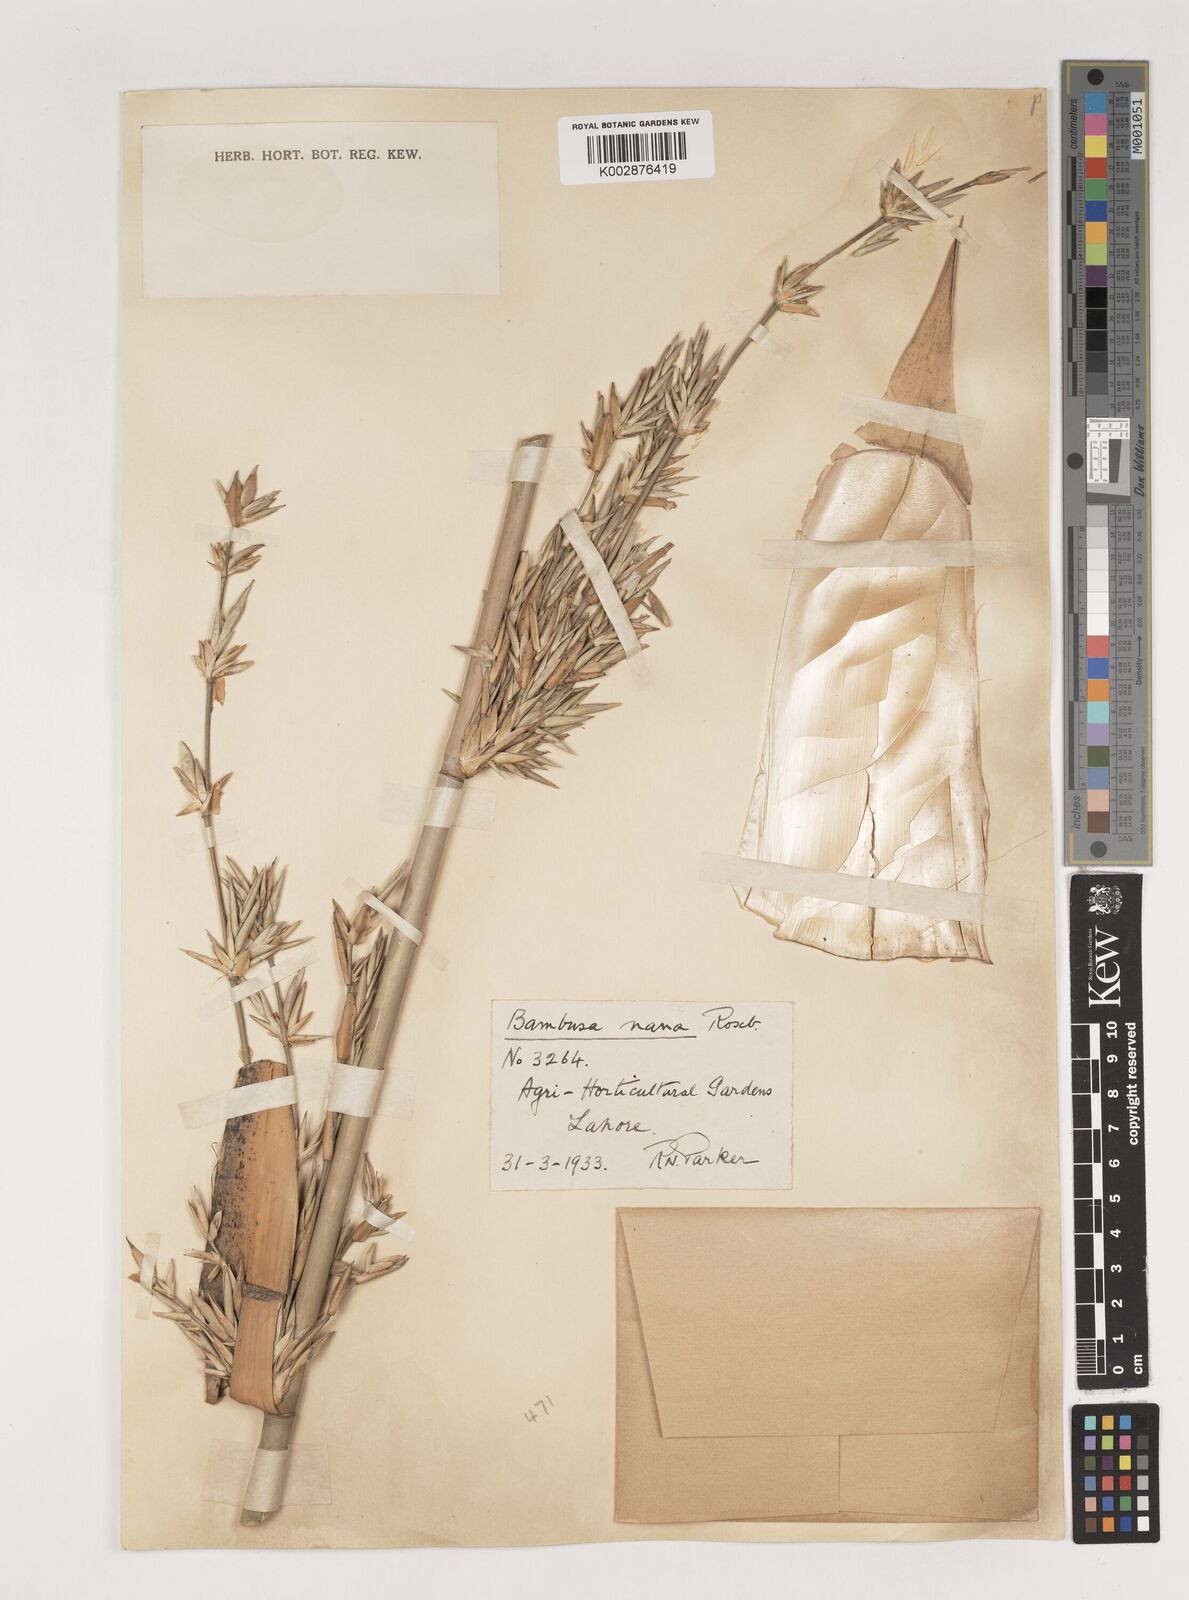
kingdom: Plantae
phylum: Tracheophyta
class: Liliopsida
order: Poales
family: Poaceae
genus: Bambusa
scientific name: Bambusa multiplex
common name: Hedge bamboo
